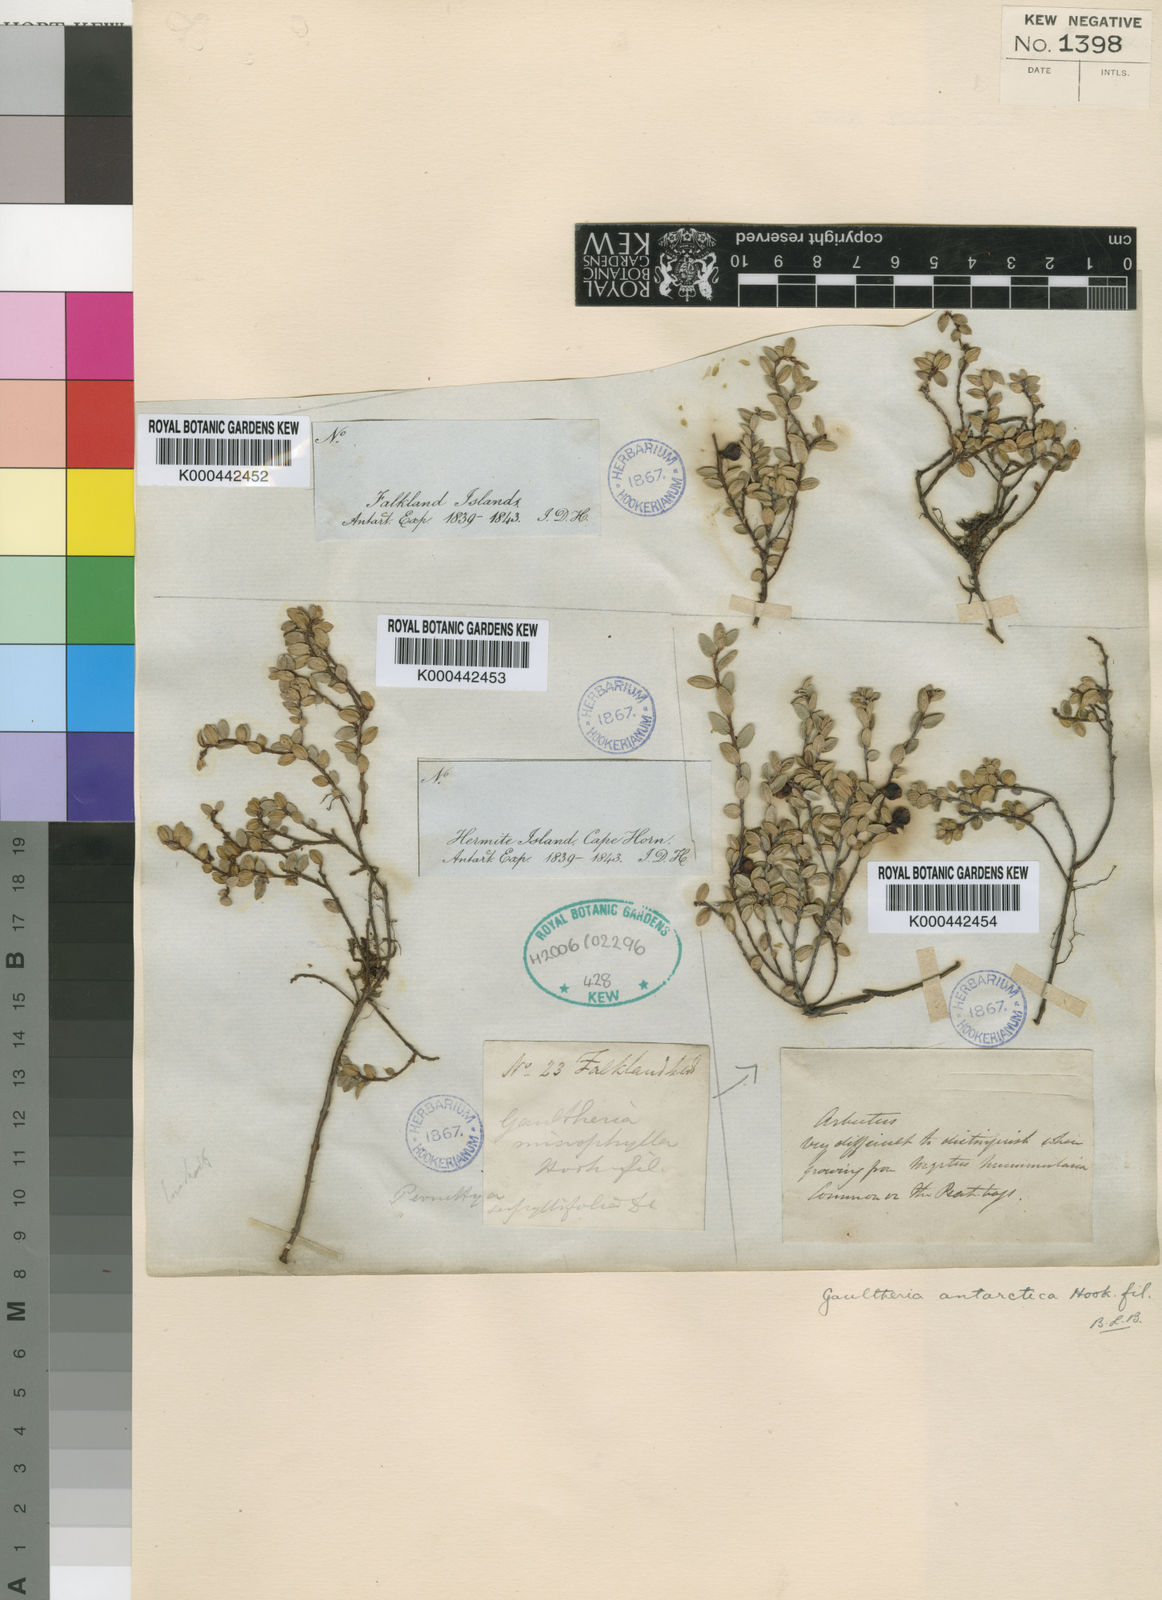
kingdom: Plantae
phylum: Tracheophyta
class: Magnoliopsida
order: Ericales
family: Ericaceae
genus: Gaultheria
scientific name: Gaultheria antarctica
